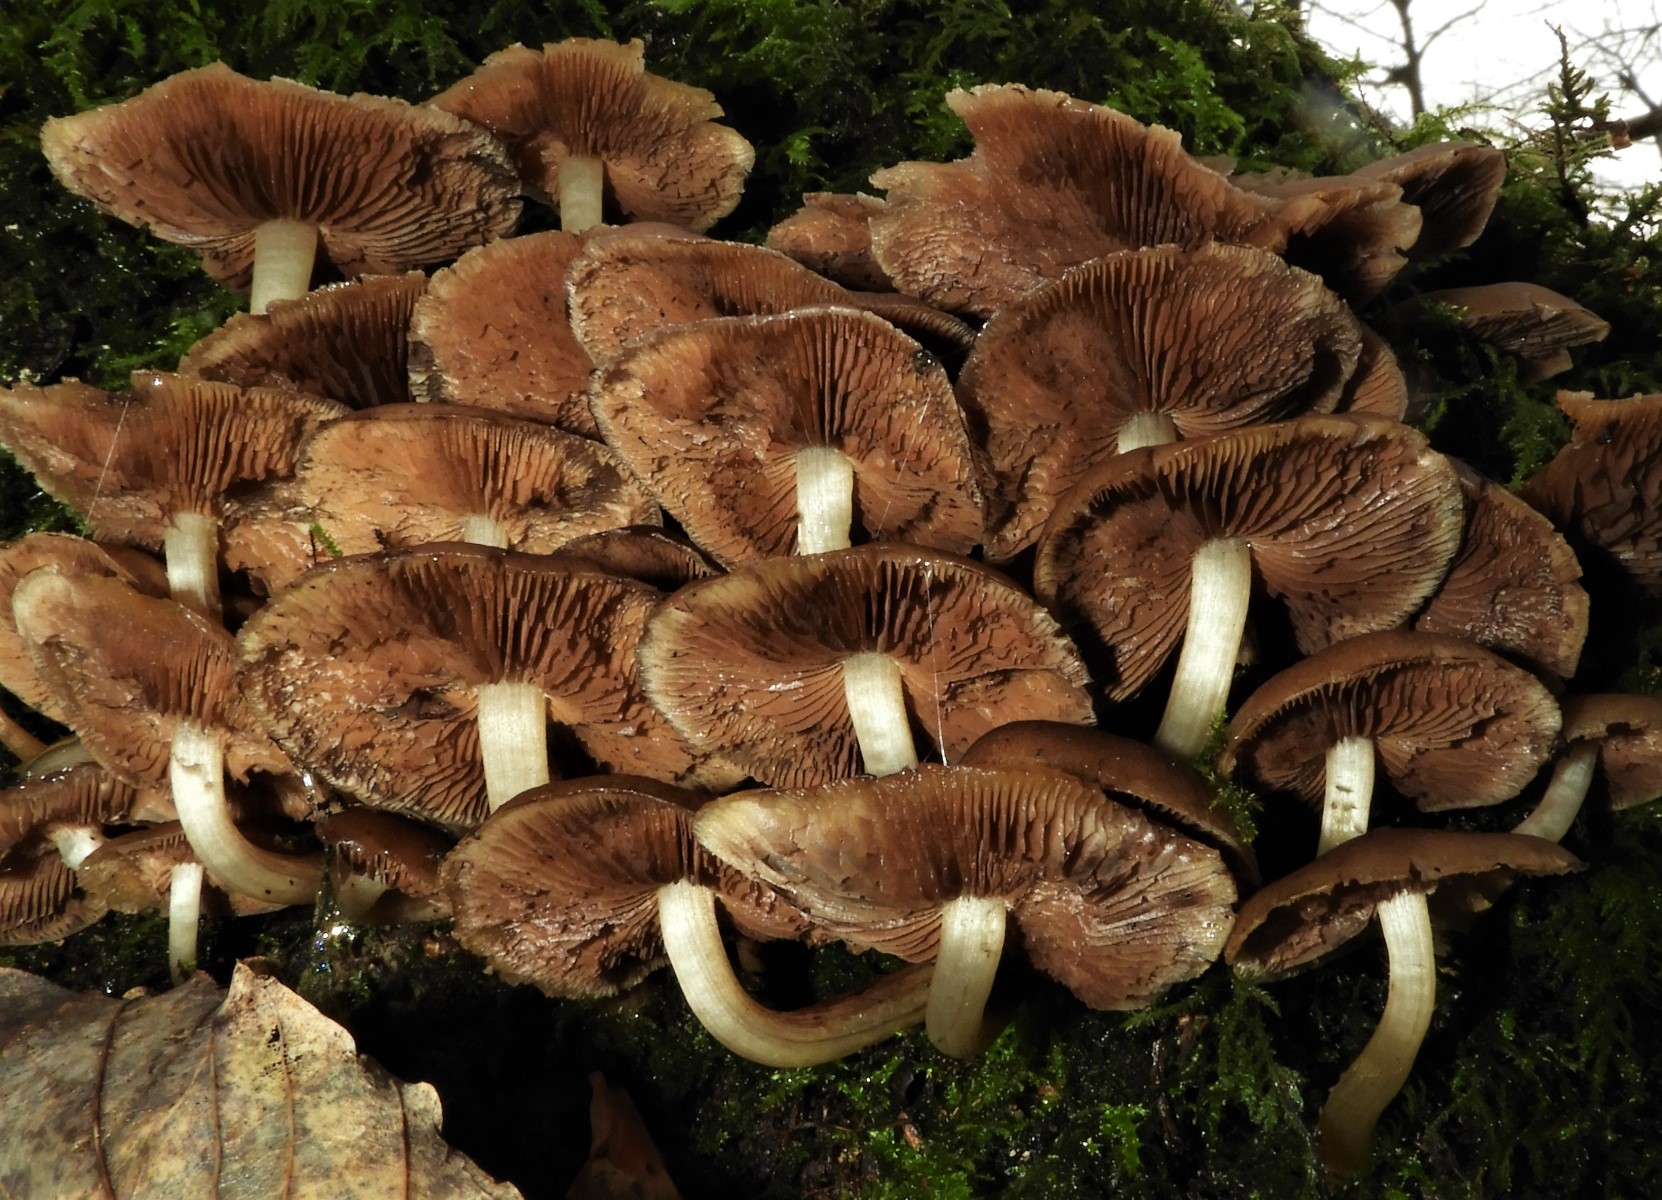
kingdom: Fungi
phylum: Basidiomycota
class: Agaricomycetes
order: Agaricales
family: Psathyrellaceae
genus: Psathyrella
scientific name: Psathyrella piluliformis
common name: lysstokket mørkhat
